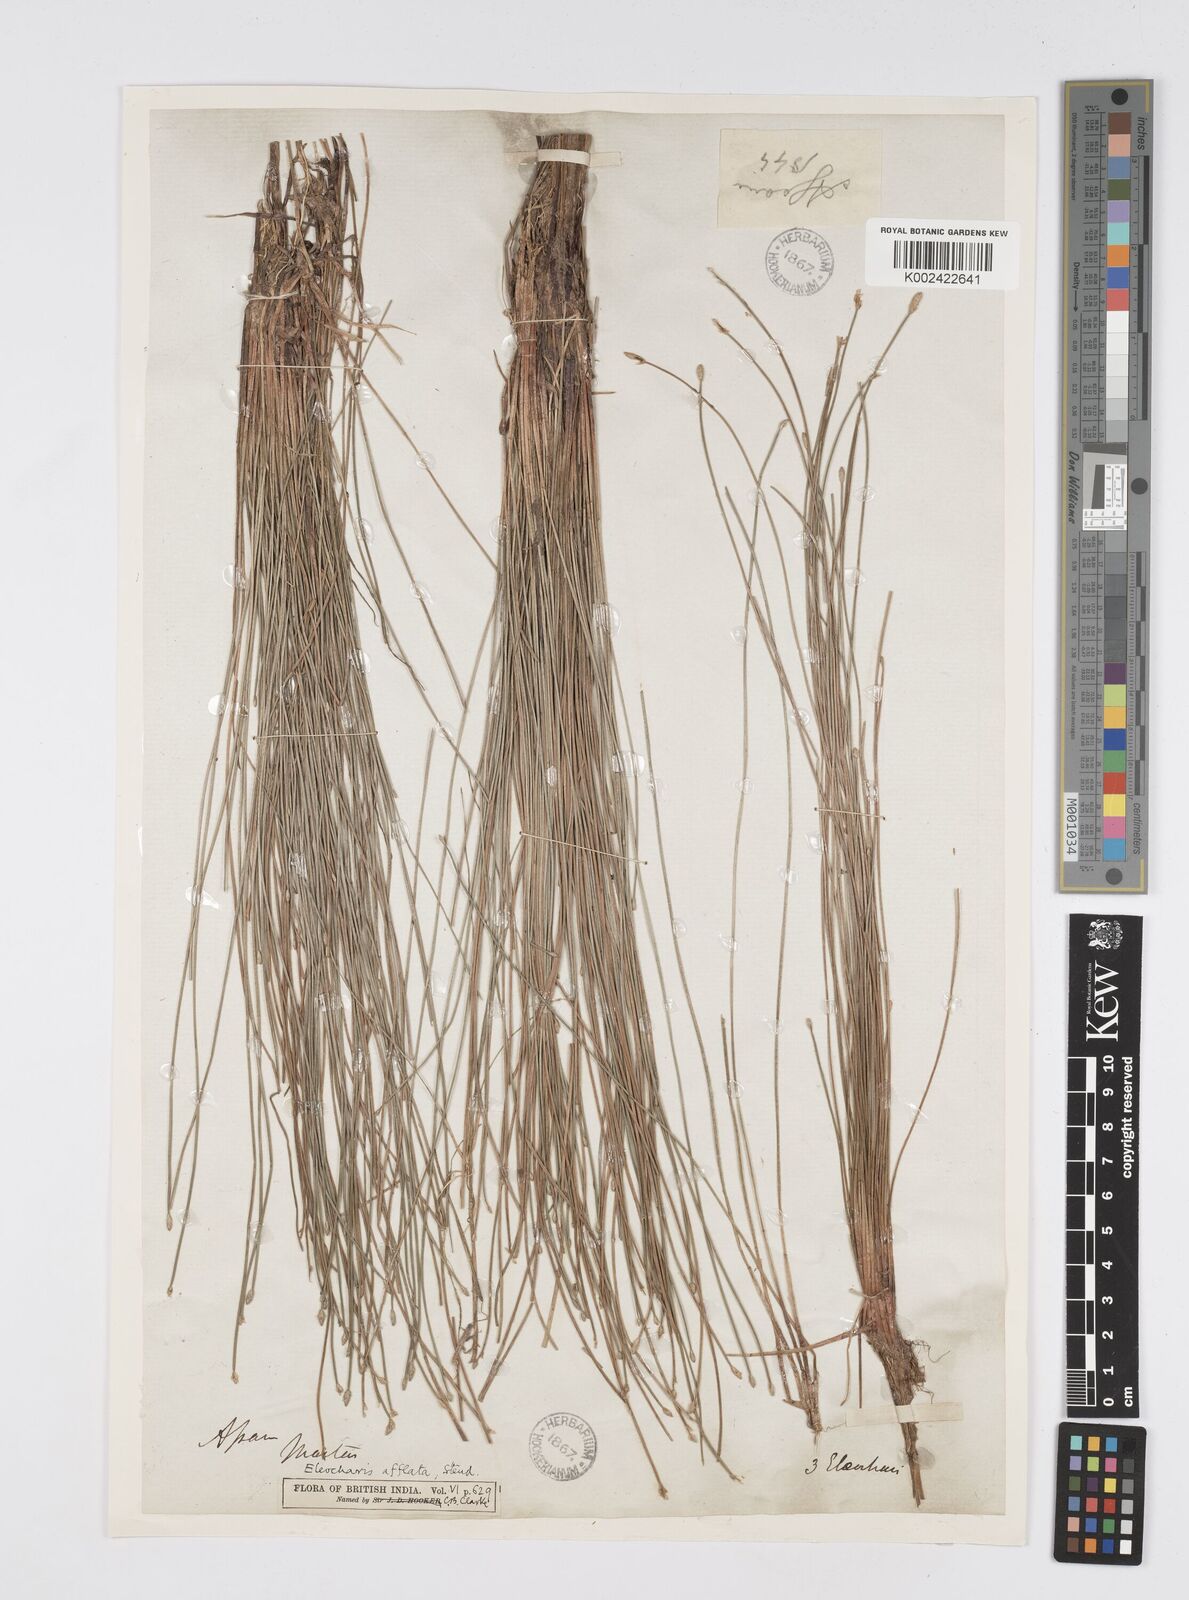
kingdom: Plantae
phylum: Tracheophyta
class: Liliopsida
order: Poales
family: Cyperaceae
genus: Eleocharis
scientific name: Eleocharis pellucida
